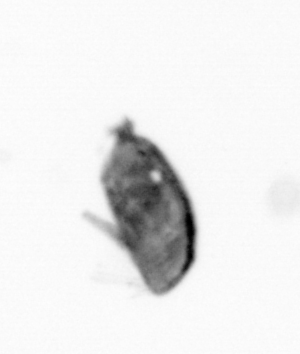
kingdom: Animalia
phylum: Arthropoda
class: Maxillopoda
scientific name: Maxillopoda
